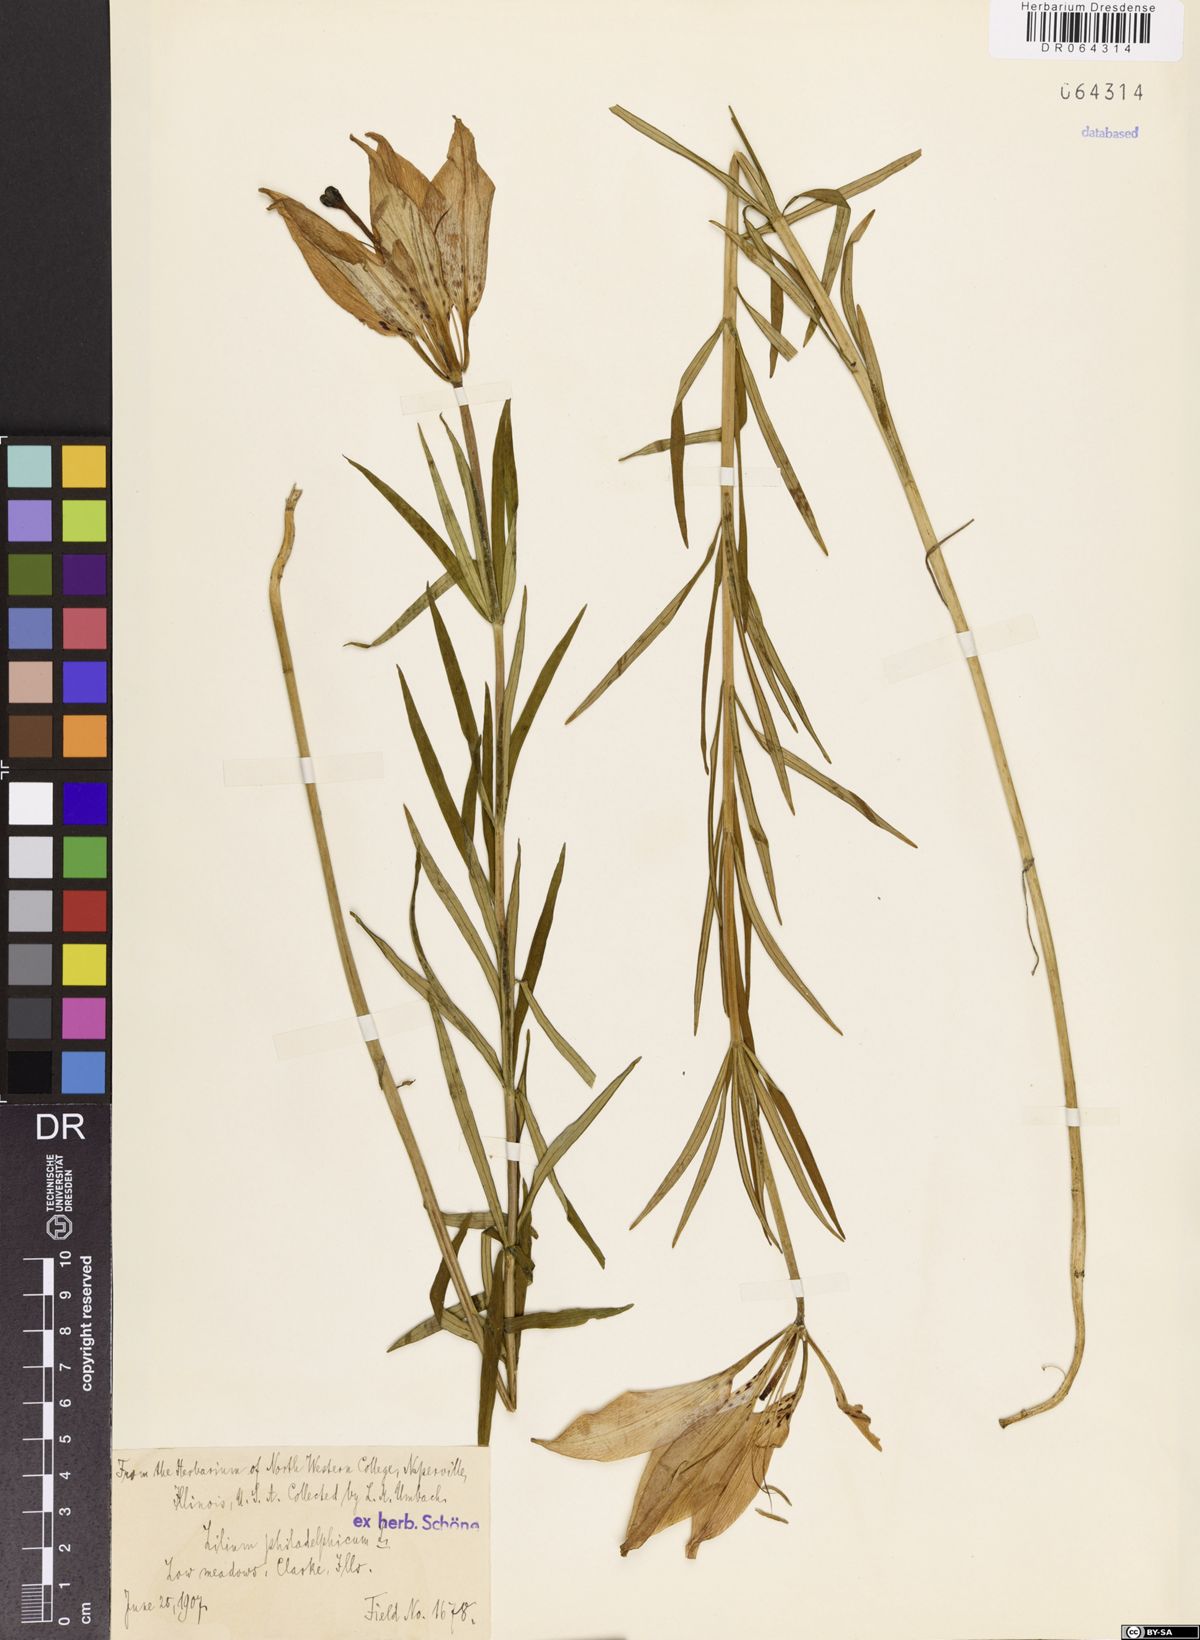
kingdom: Plantae
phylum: Tracheophyta
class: Liliopsida
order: Liliales
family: Liliaceae
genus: Lilium
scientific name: Lilium philadelphicum
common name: Red lily
